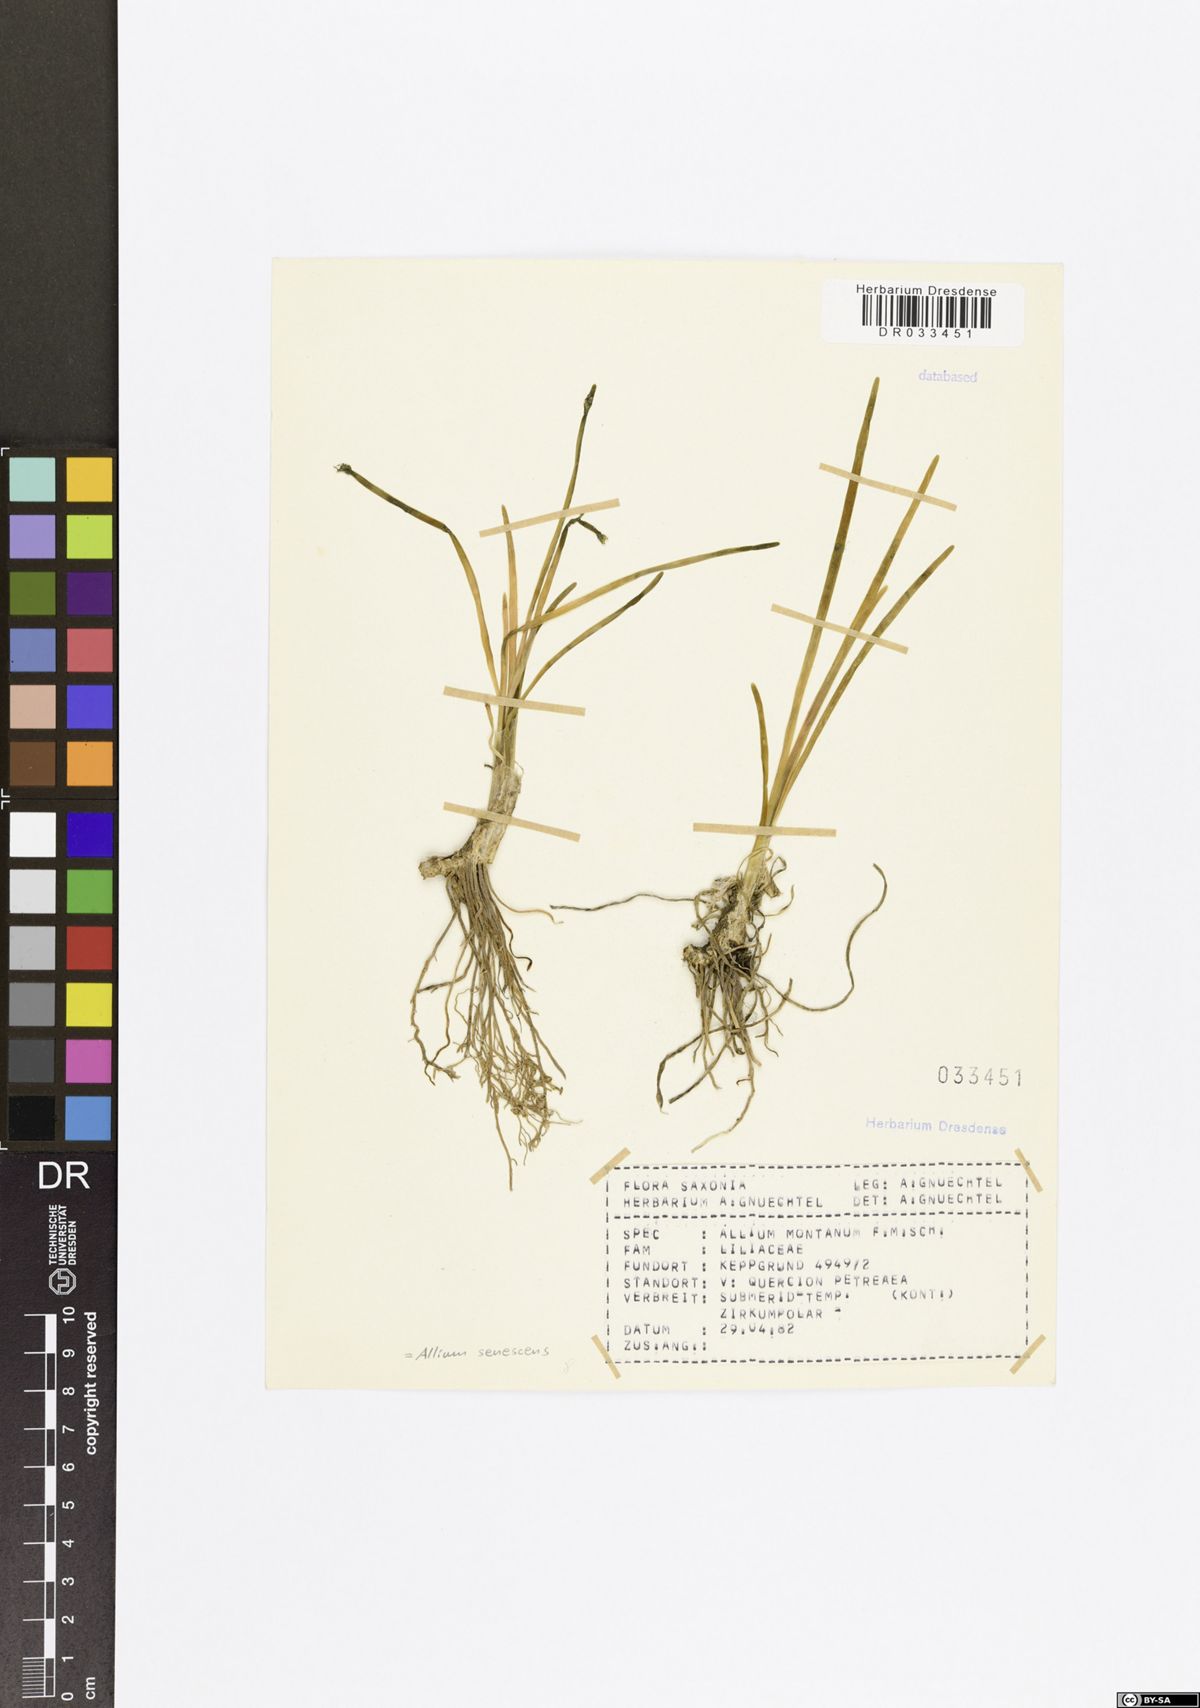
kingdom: Plantae
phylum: Tracheophyta
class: Liliopsida
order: Asparagales
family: Amaryllidaceae
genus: Allium
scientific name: Allium senescens
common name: German garlic
